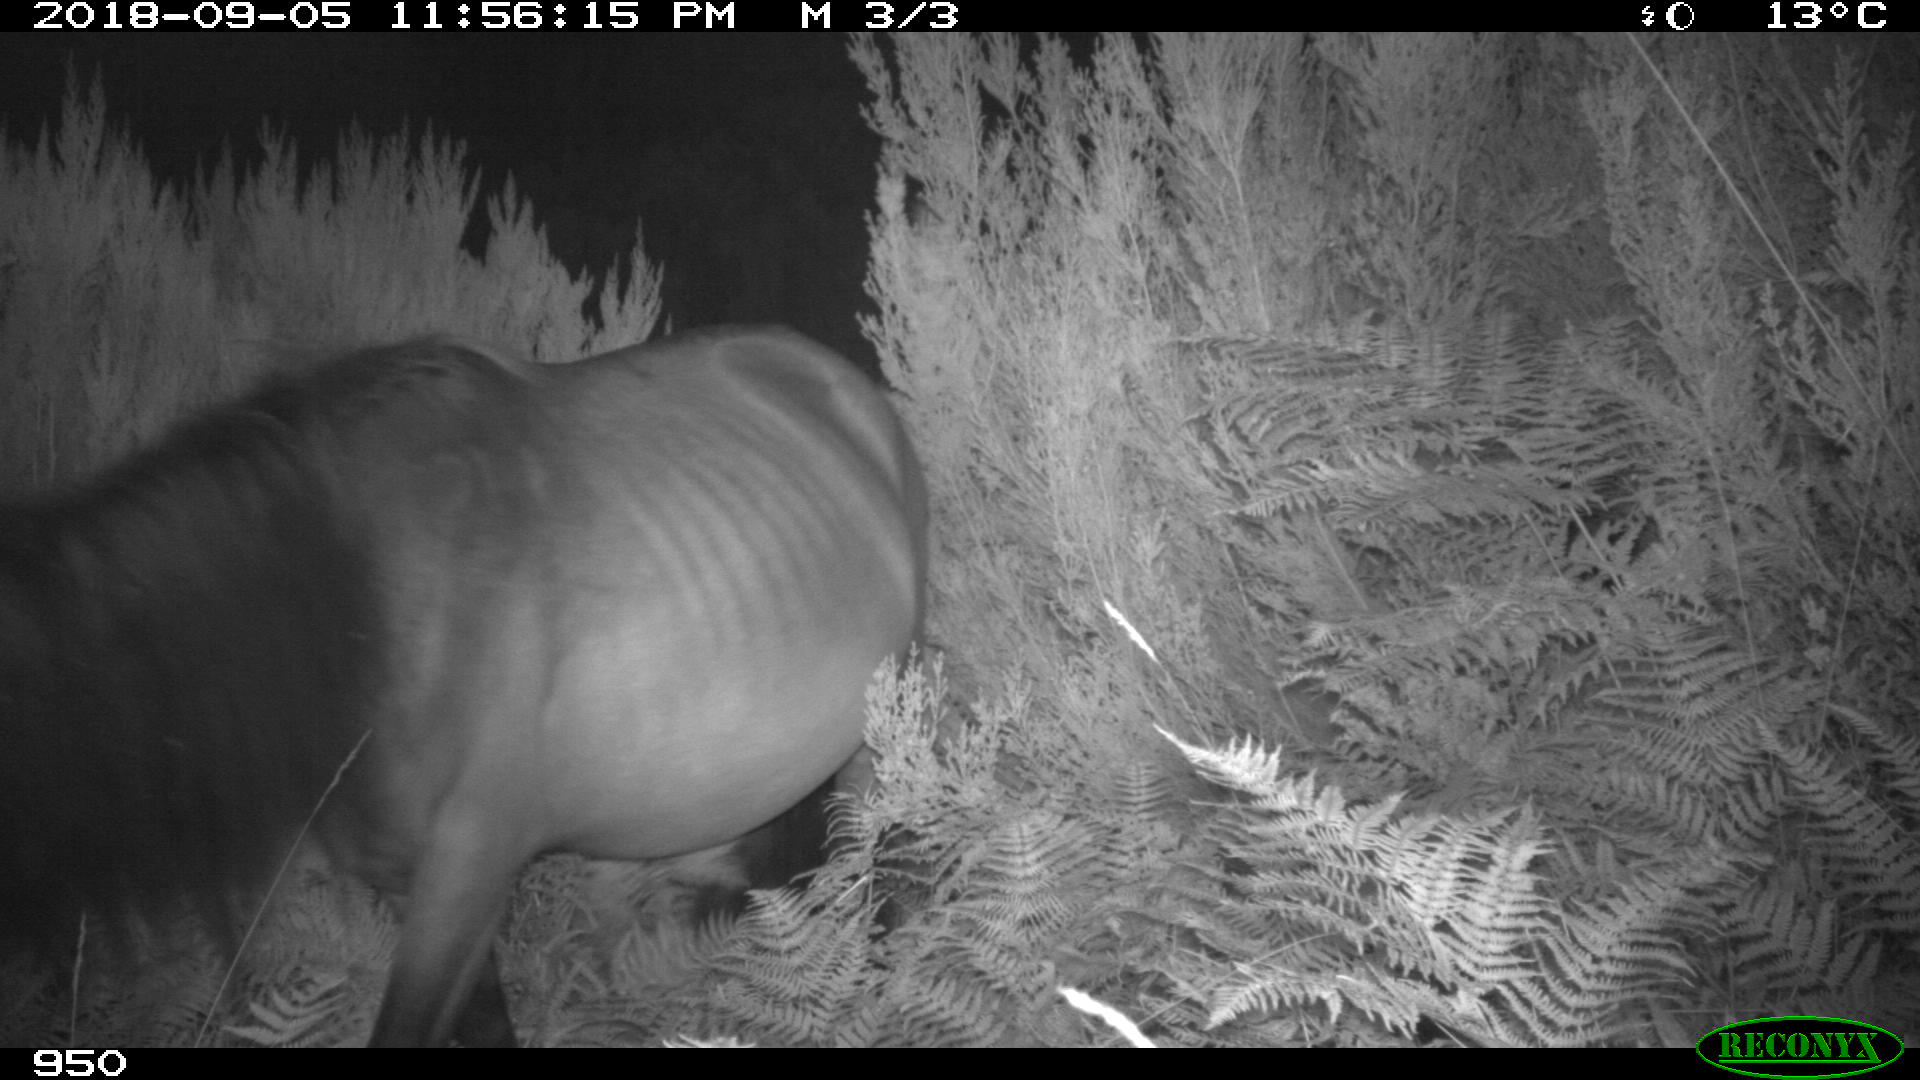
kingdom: Animalia
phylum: Chordata
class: Mammalia
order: Perissodactyla
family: Equidae
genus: Equus
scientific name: Equus caballus
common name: Horse
